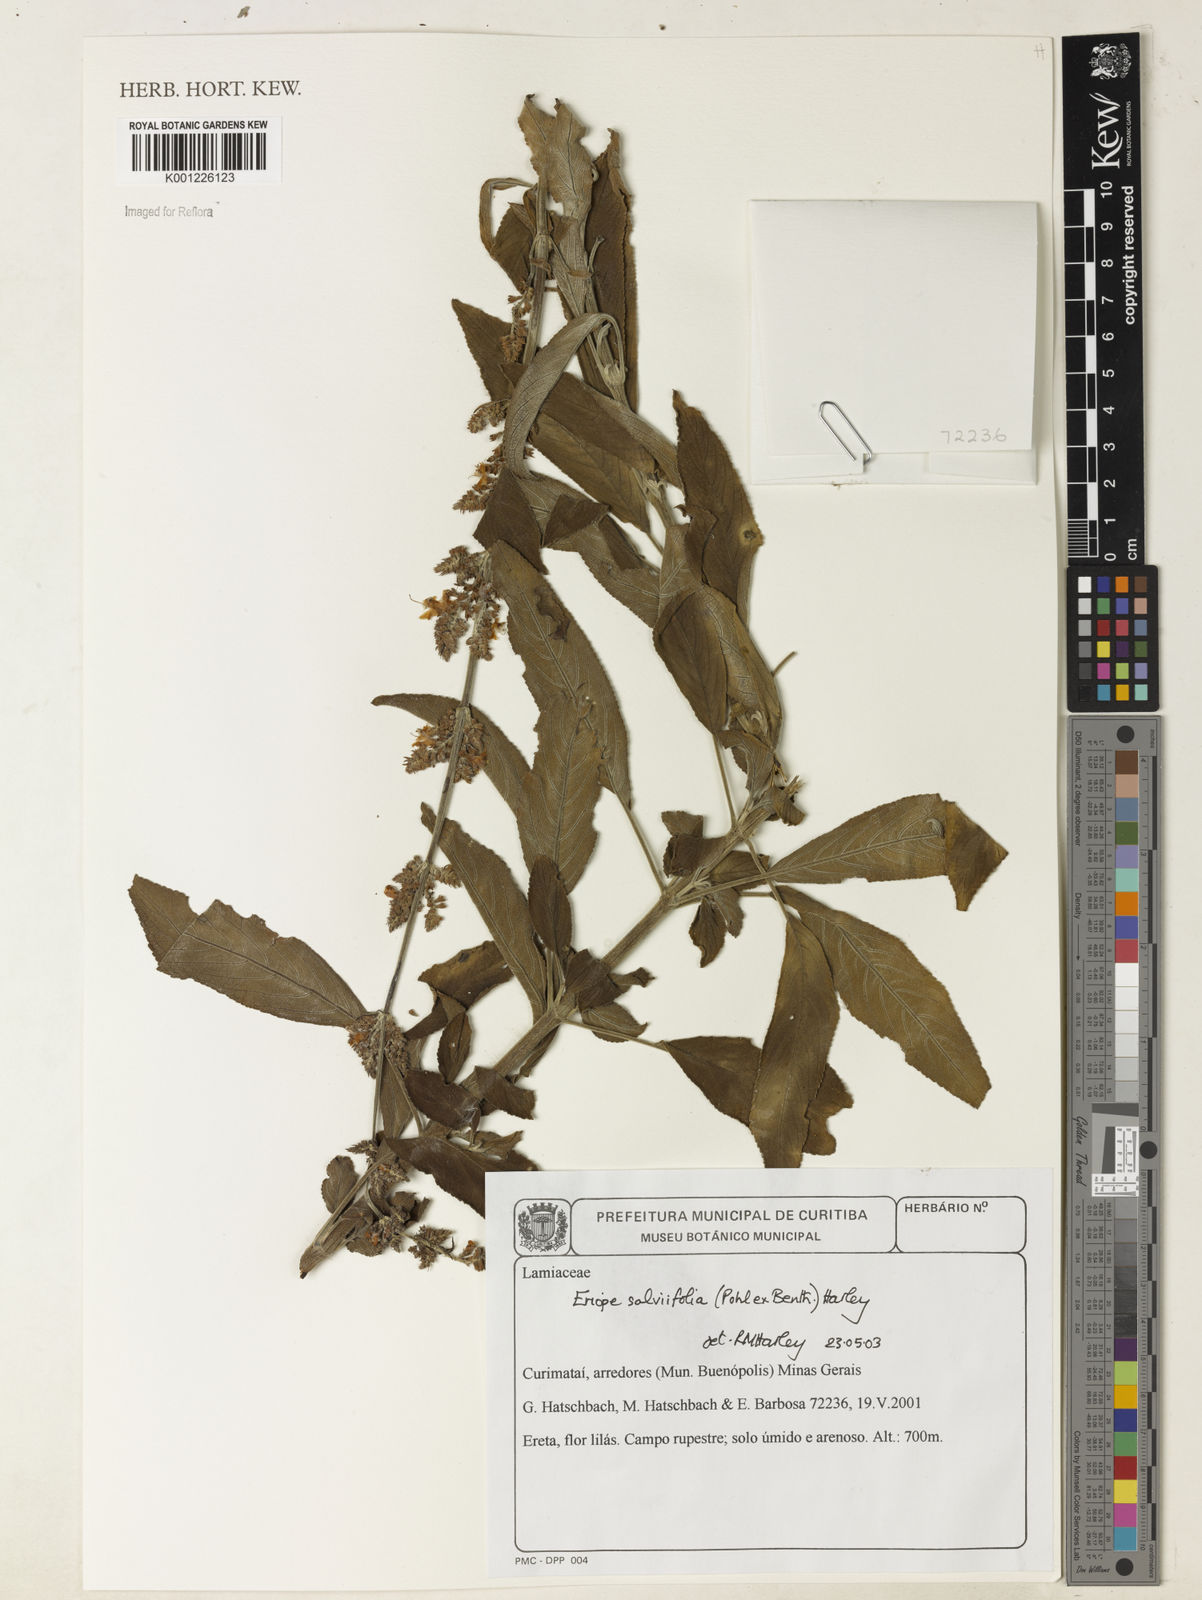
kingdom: Plantae
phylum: Tracheophyta
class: Magnoliopsida
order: Lamiales
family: Lamiaceae
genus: Eriope
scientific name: Eriope salviifolia
